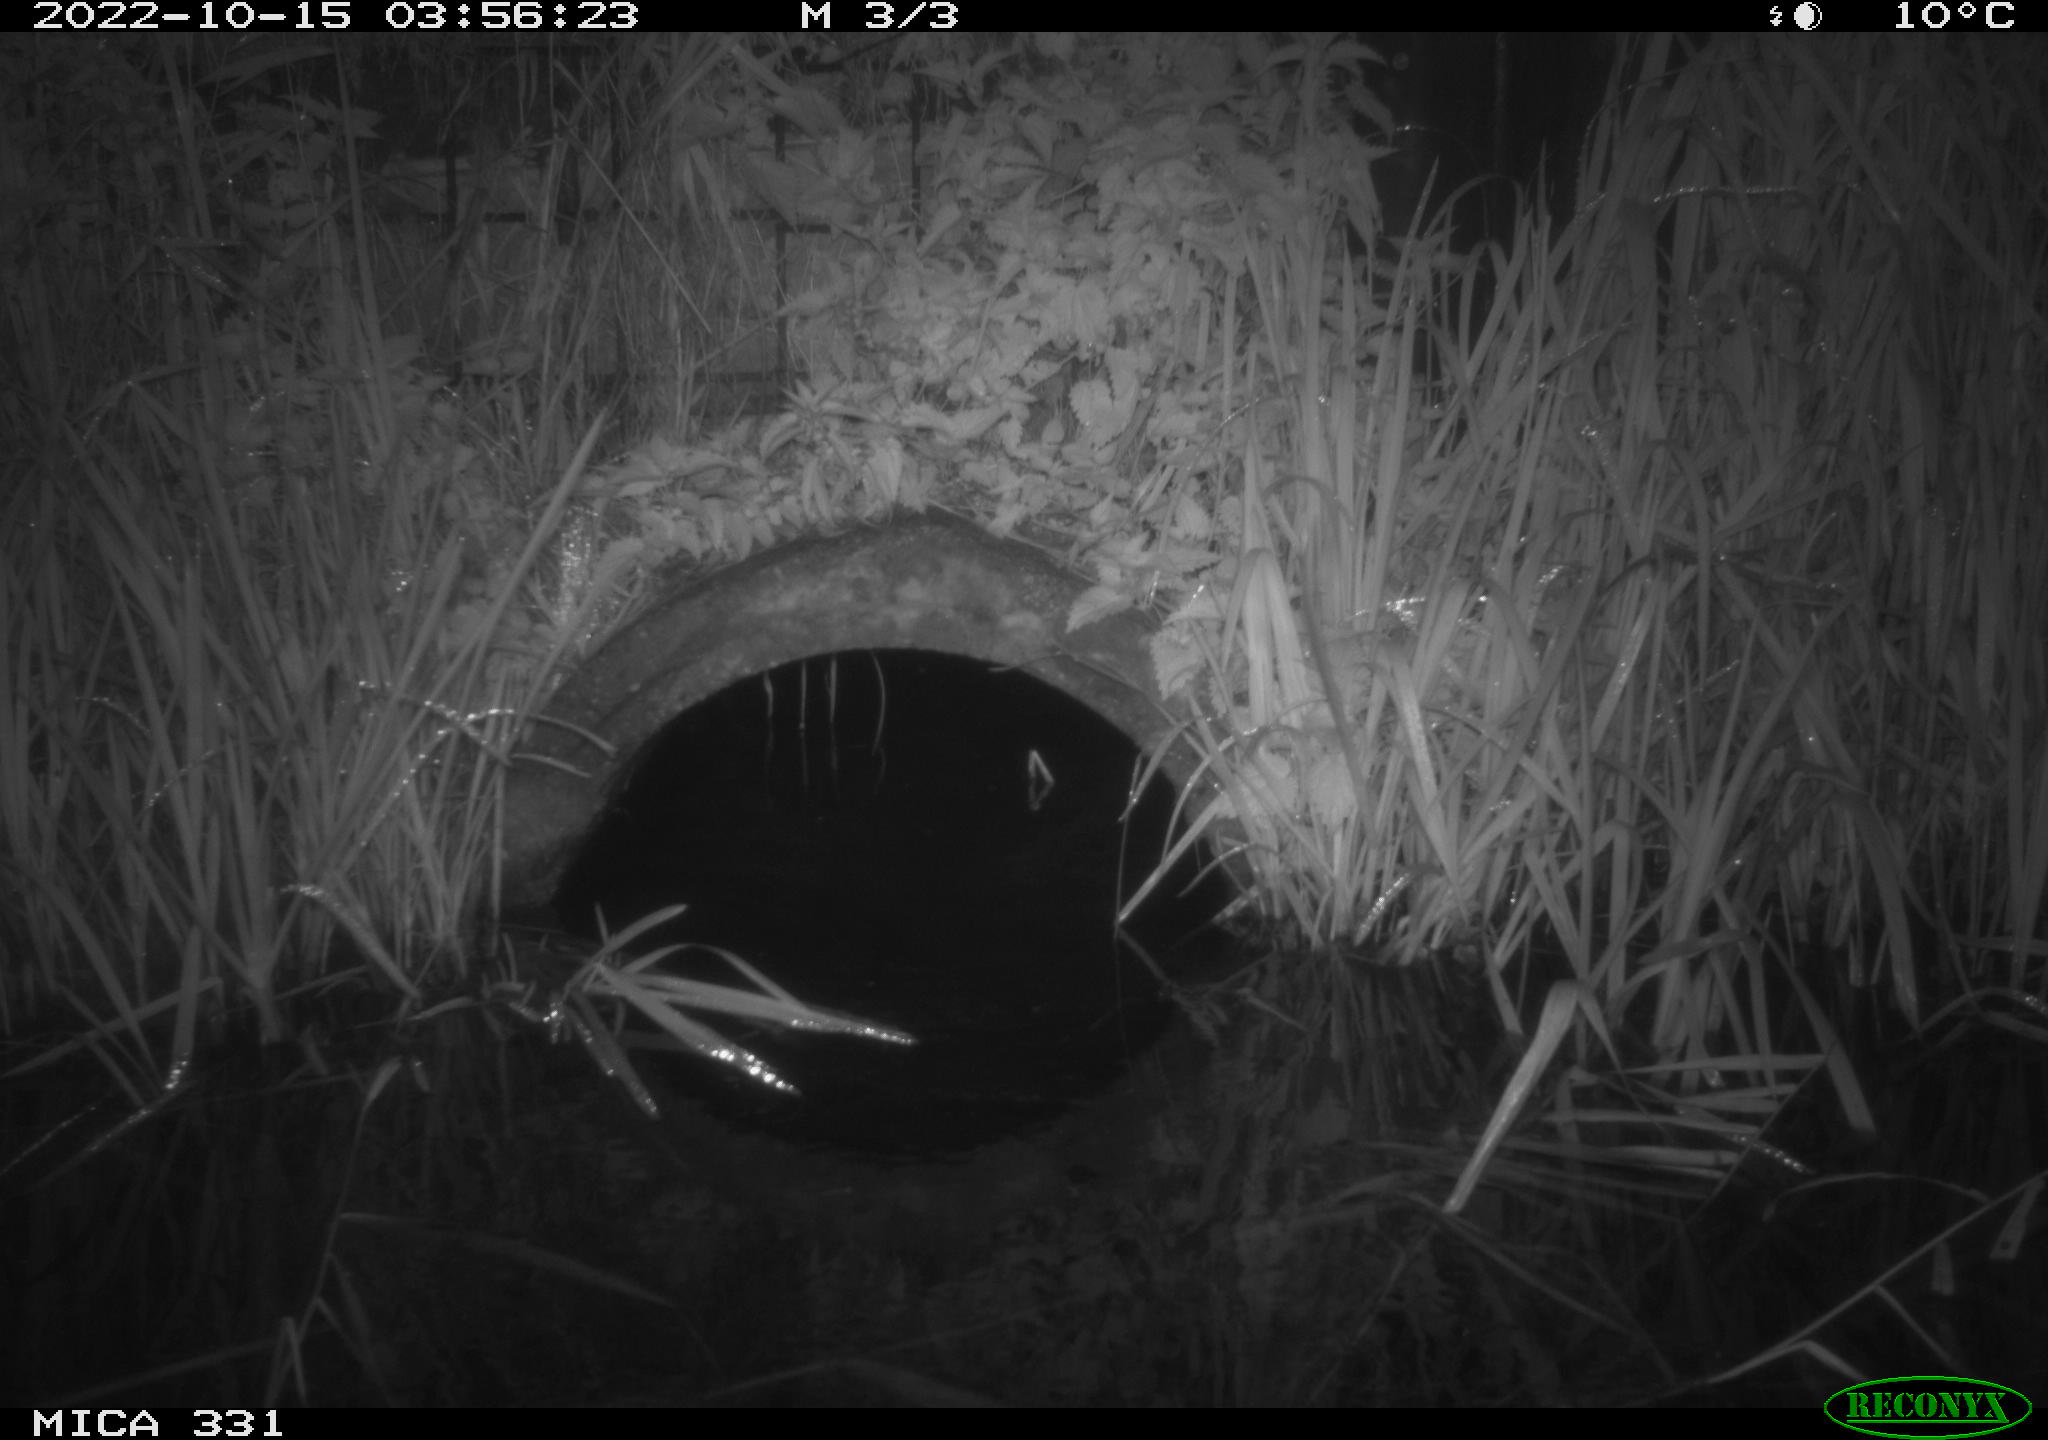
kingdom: Animalia
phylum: Chordata
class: Mammalia
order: Rodentia
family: Muridae
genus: Rattus
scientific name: Rattus norvegicus
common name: Brown rat
